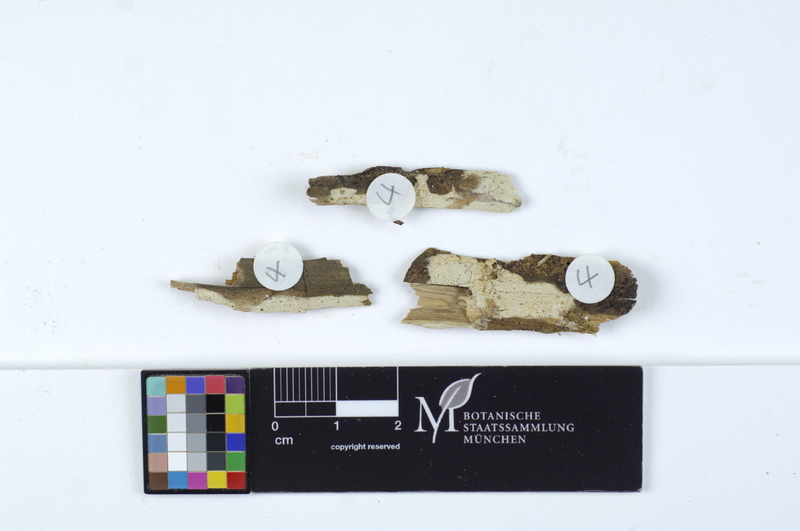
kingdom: Fungi
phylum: Basidiomycota
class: Agaricomycetes
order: Polyporales
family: Dacryobolaceae
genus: Dacryobolus
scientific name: Dacryobolus sudans
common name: Weeping toothcrust
